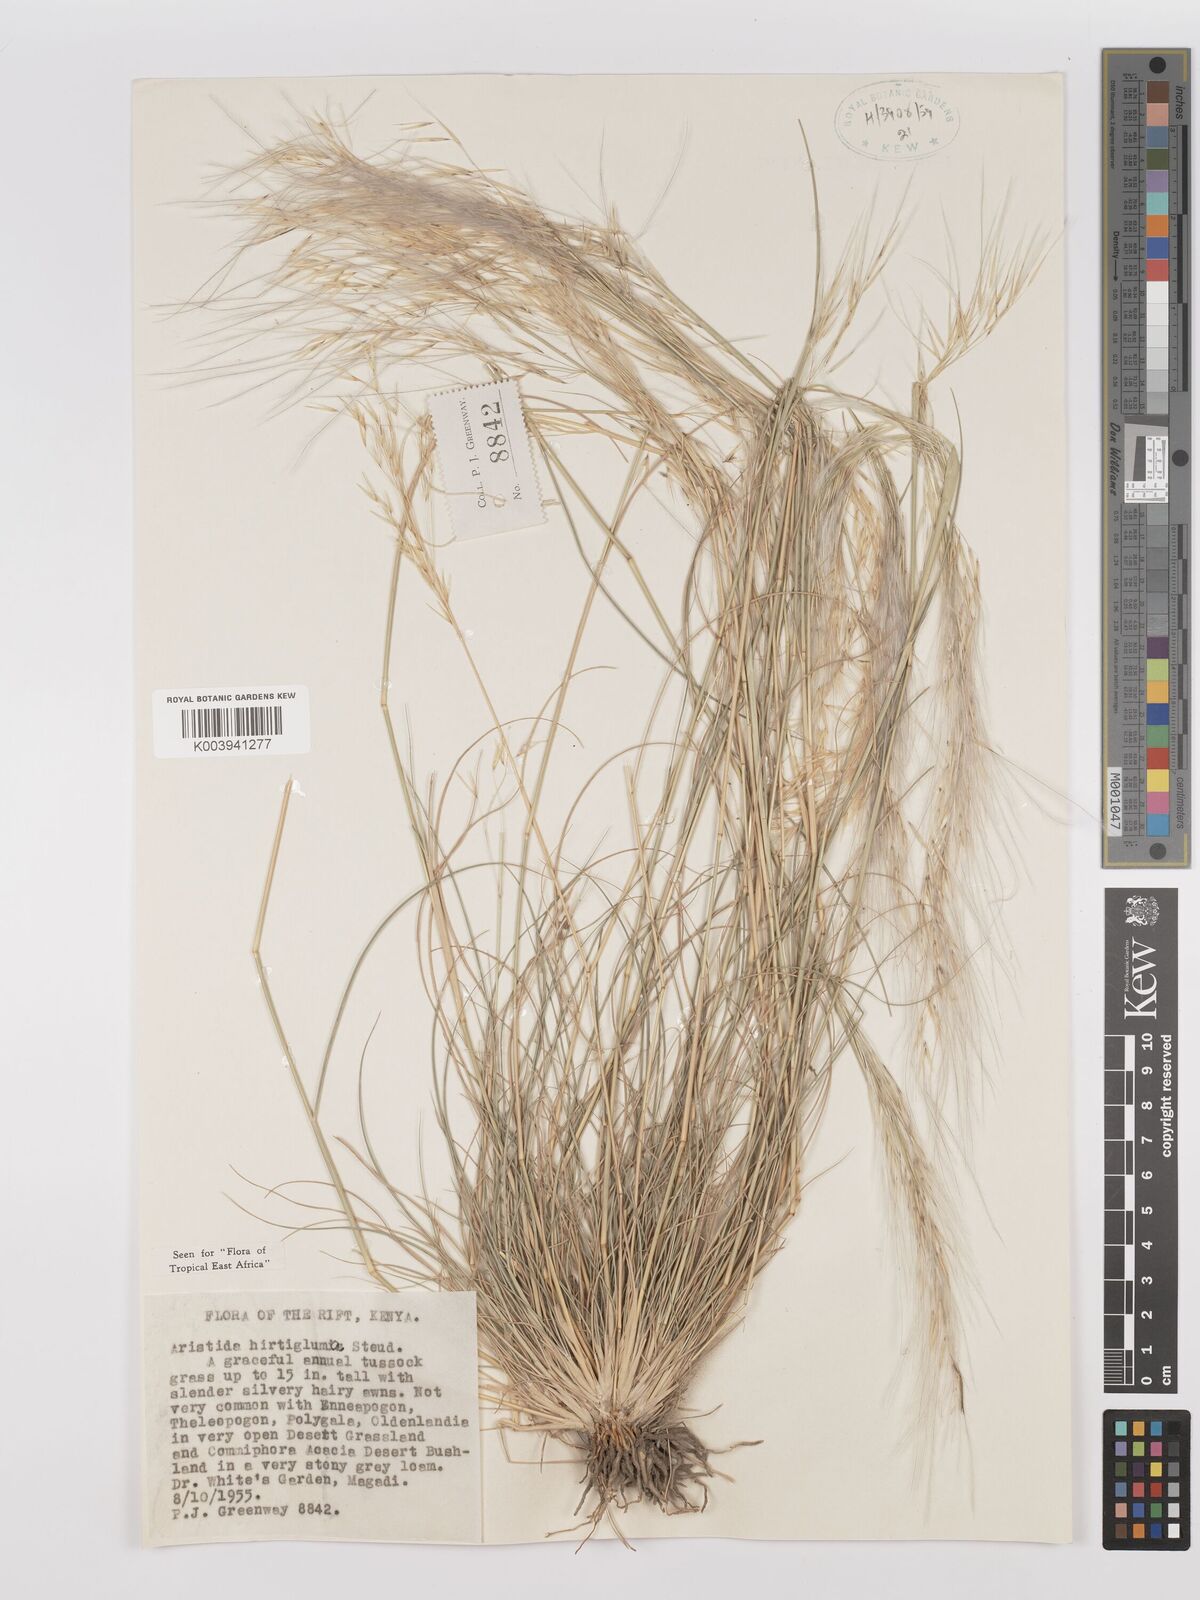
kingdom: Plantae
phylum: Tracheophyta
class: Liliopsida
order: Poales
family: Poaceae
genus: Stipagrostis
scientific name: Stipagrostis hirtigluma
